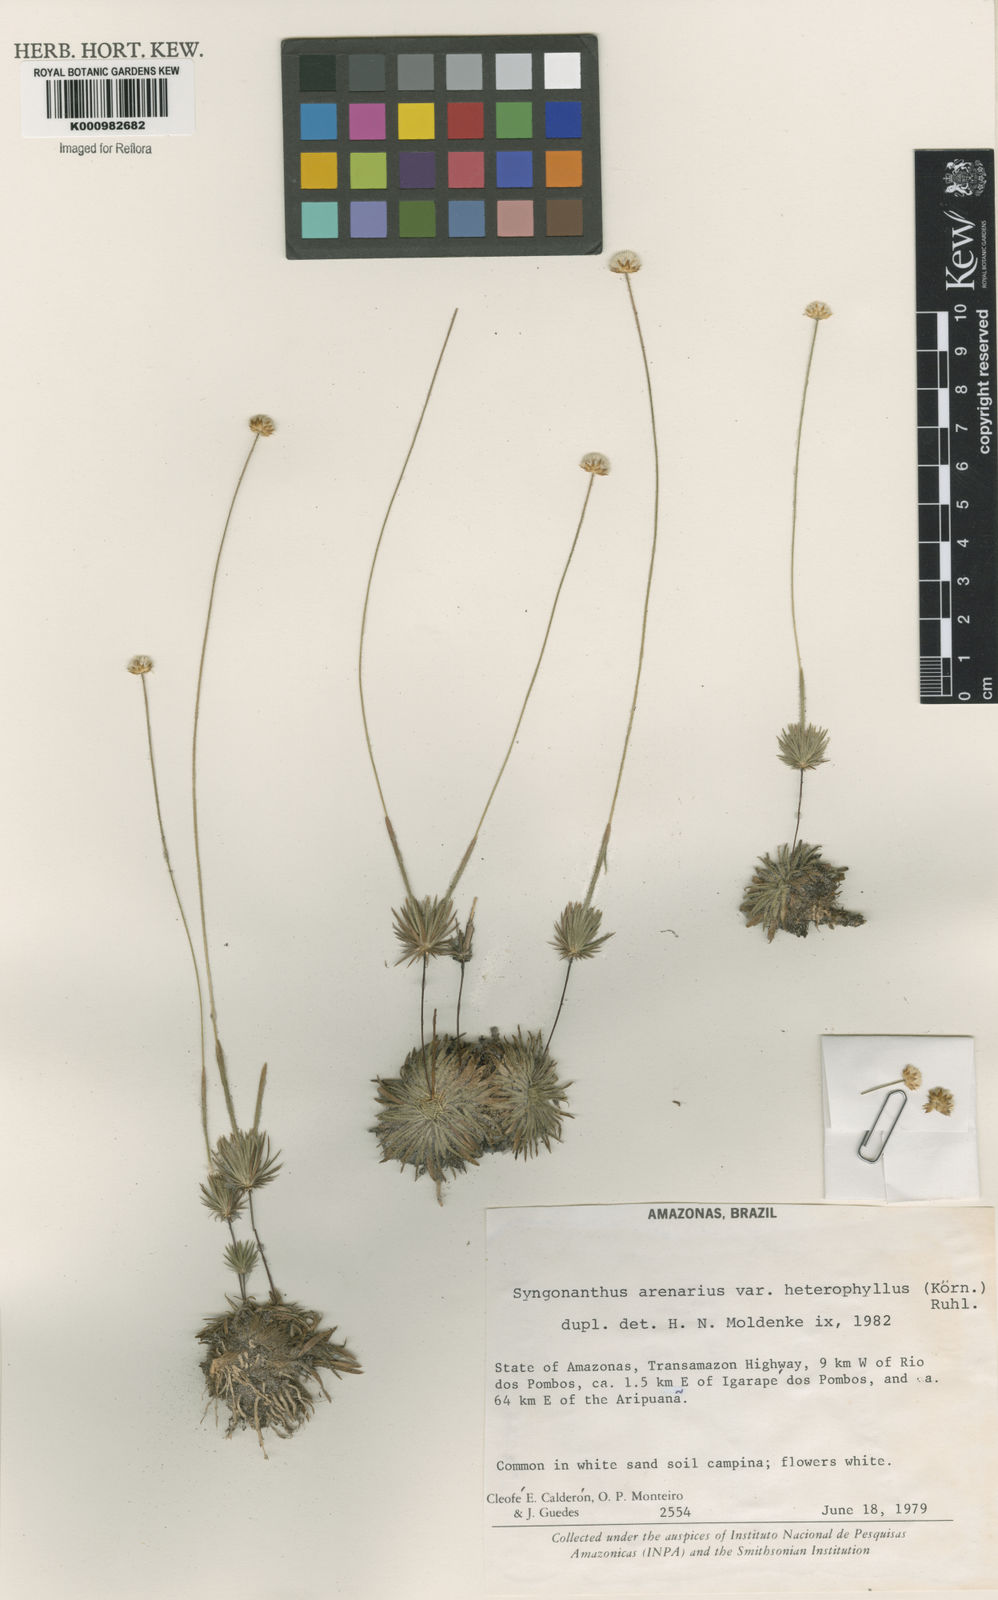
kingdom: Plantae
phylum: Tracheophyta
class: Liliopsida
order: Poales
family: Eriocaulaceae
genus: Syngonanthus
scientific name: Syngonanthus arenarius
